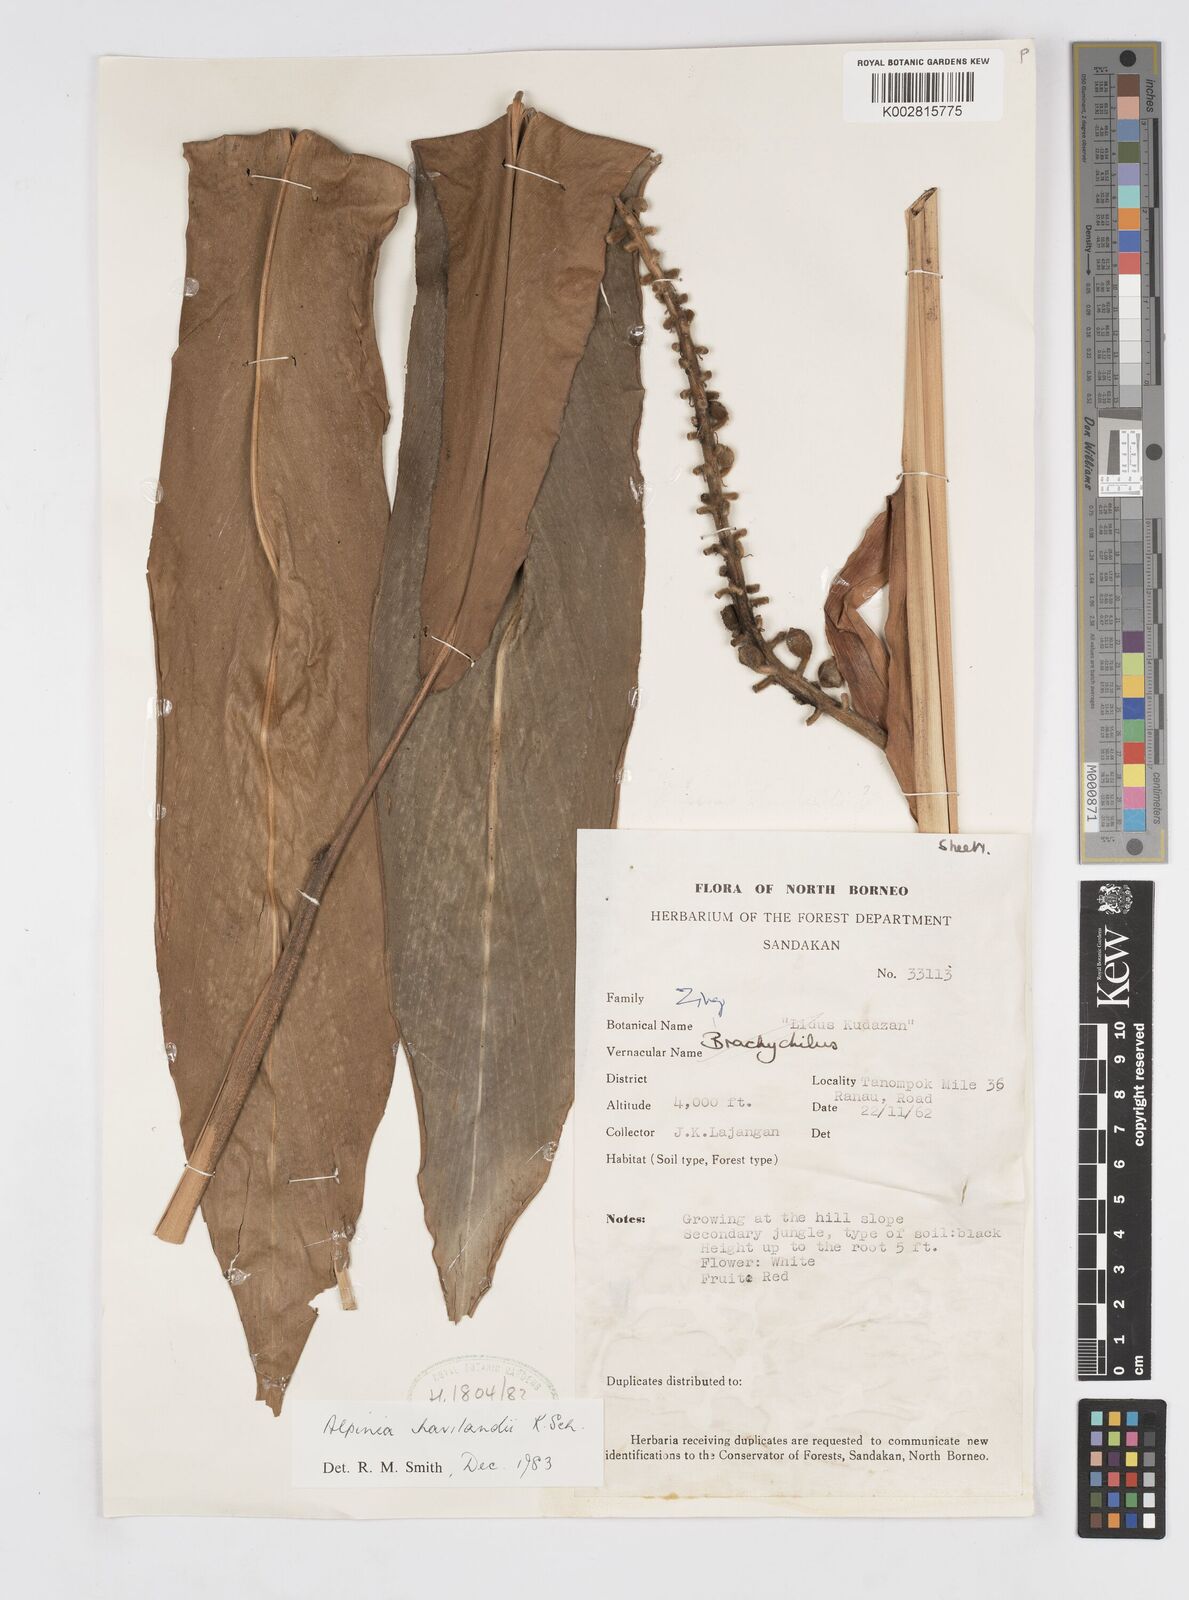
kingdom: Plantae
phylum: Tracheophyta
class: Liliopsida
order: Zingiberales
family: Zingiberaceae
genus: Alpinia
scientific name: Alpinia havilandii
